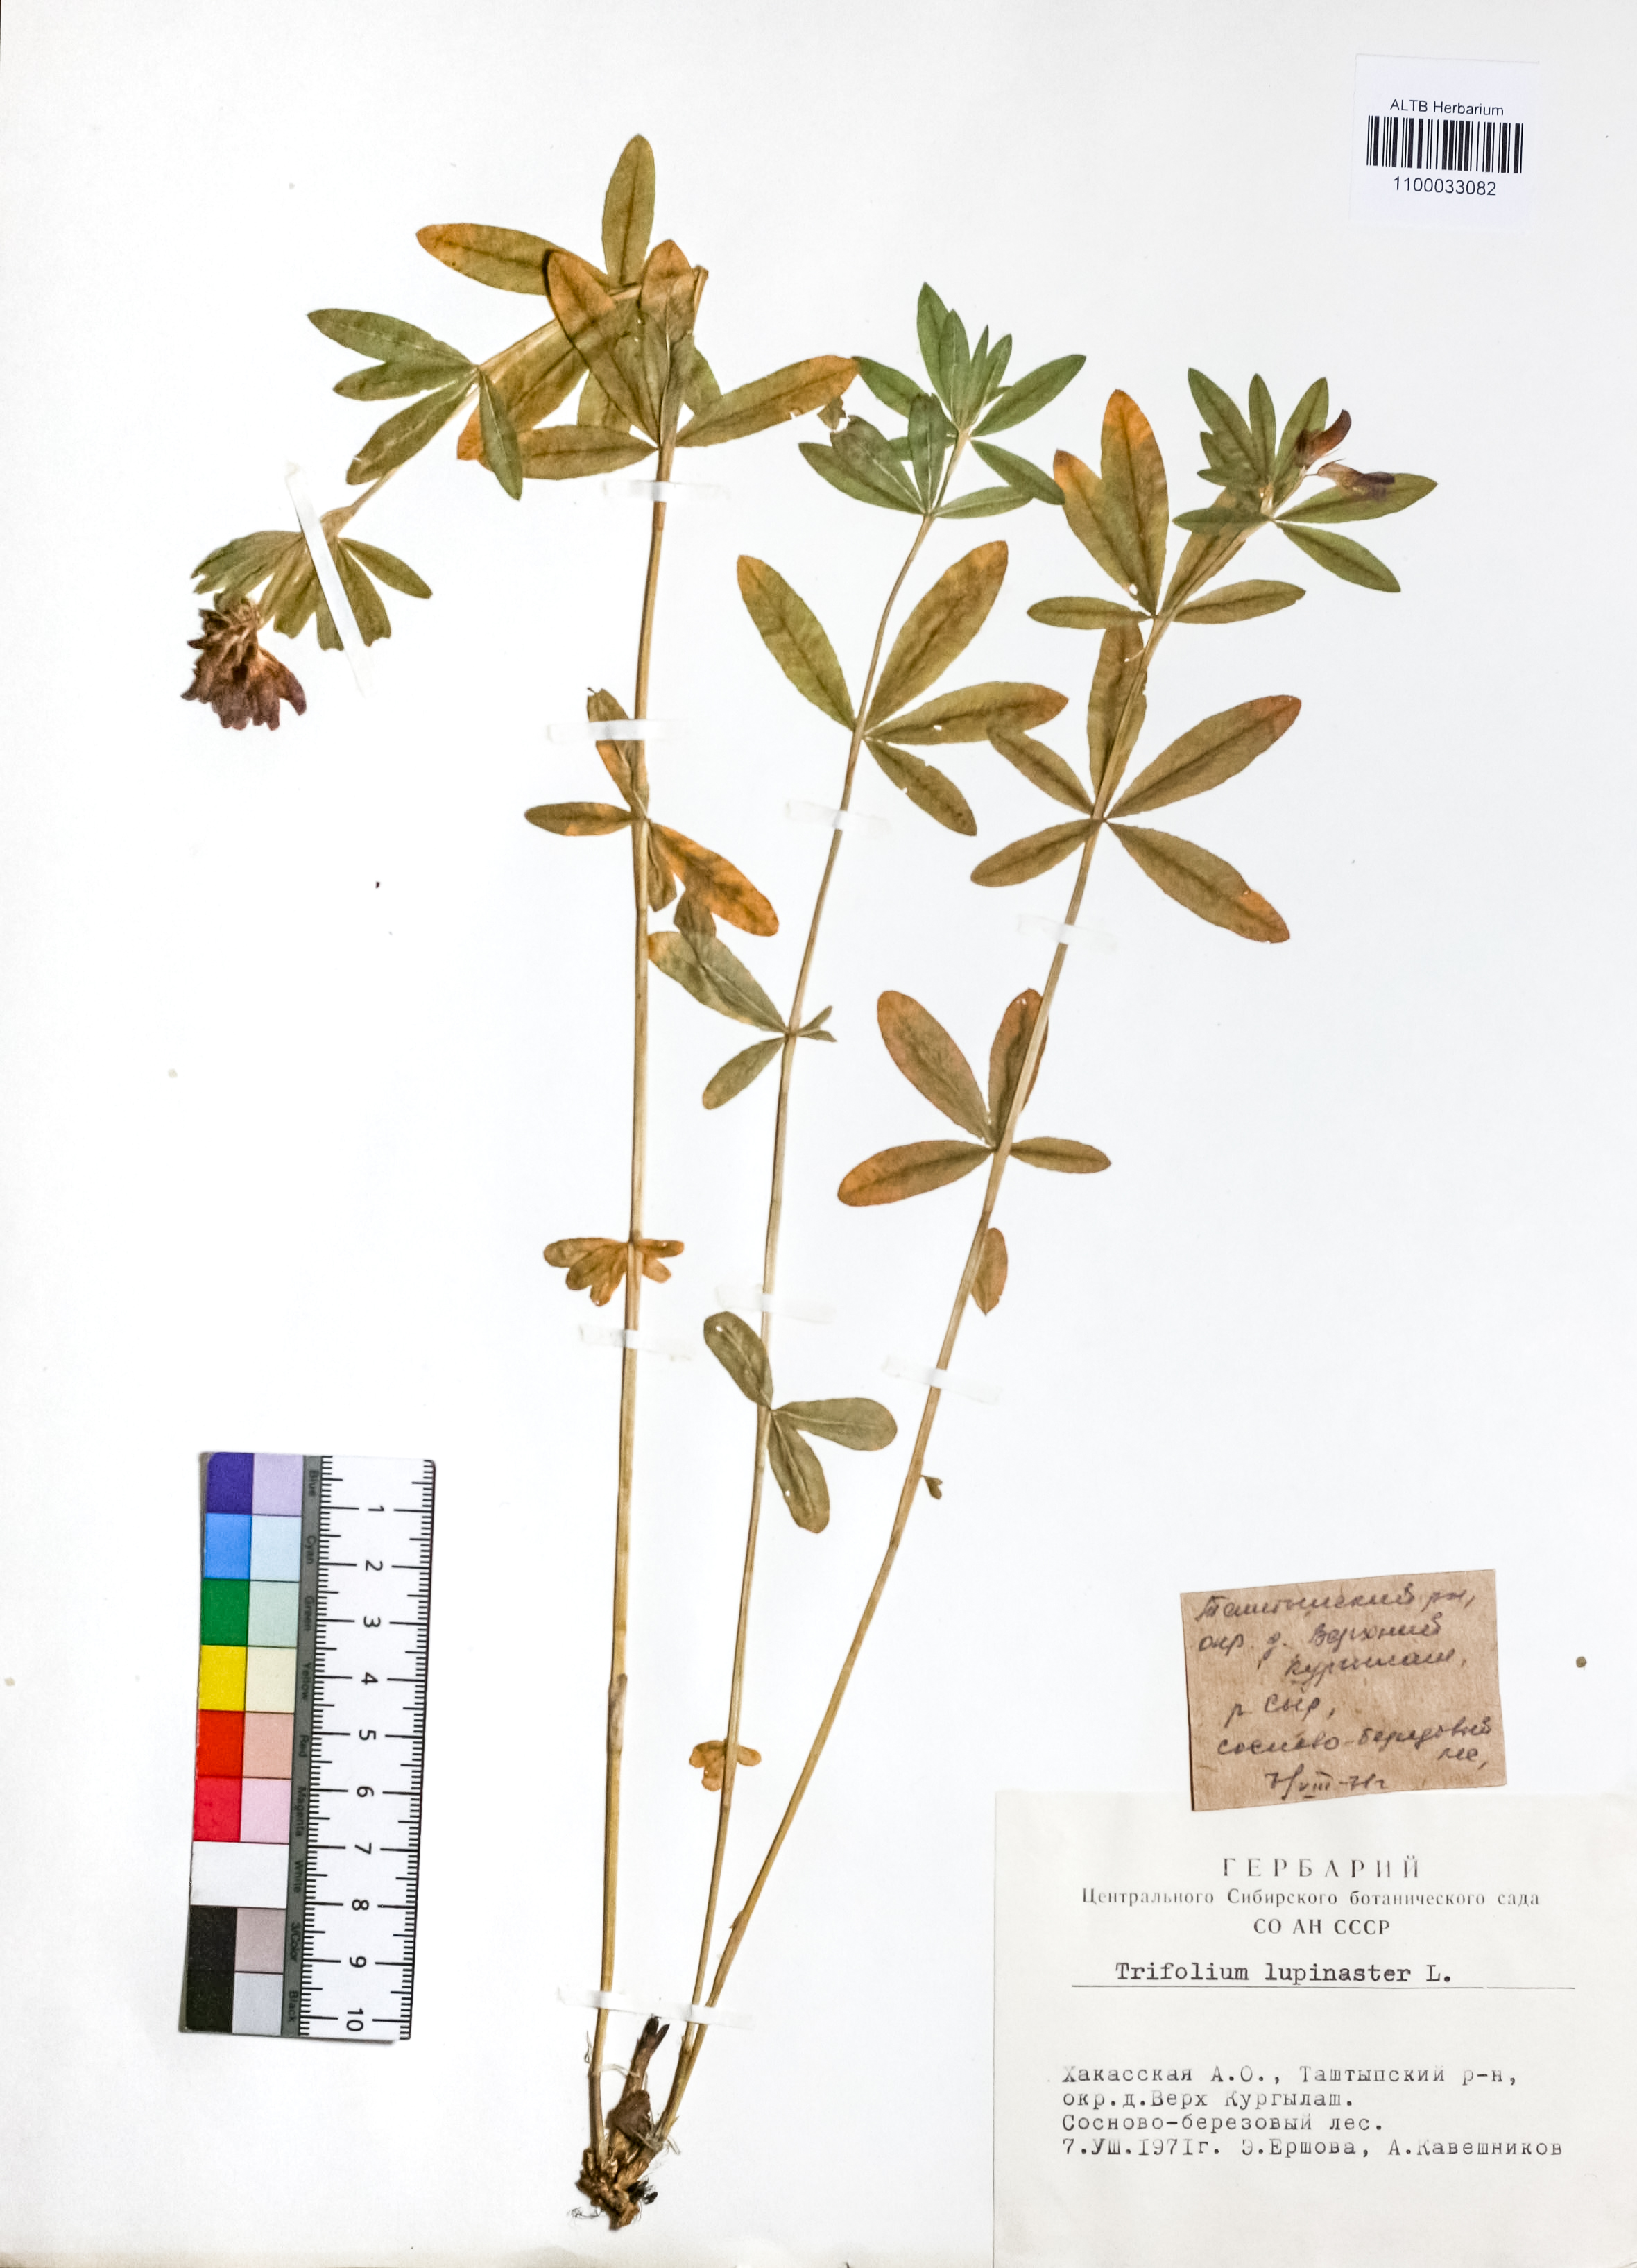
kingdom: Plantae
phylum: Tracheophyta
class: Magnoliopsida
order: Fabales
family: Fabaceae
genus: Trifolium
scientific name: Trifolium lupinaster
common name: Lupine clover
